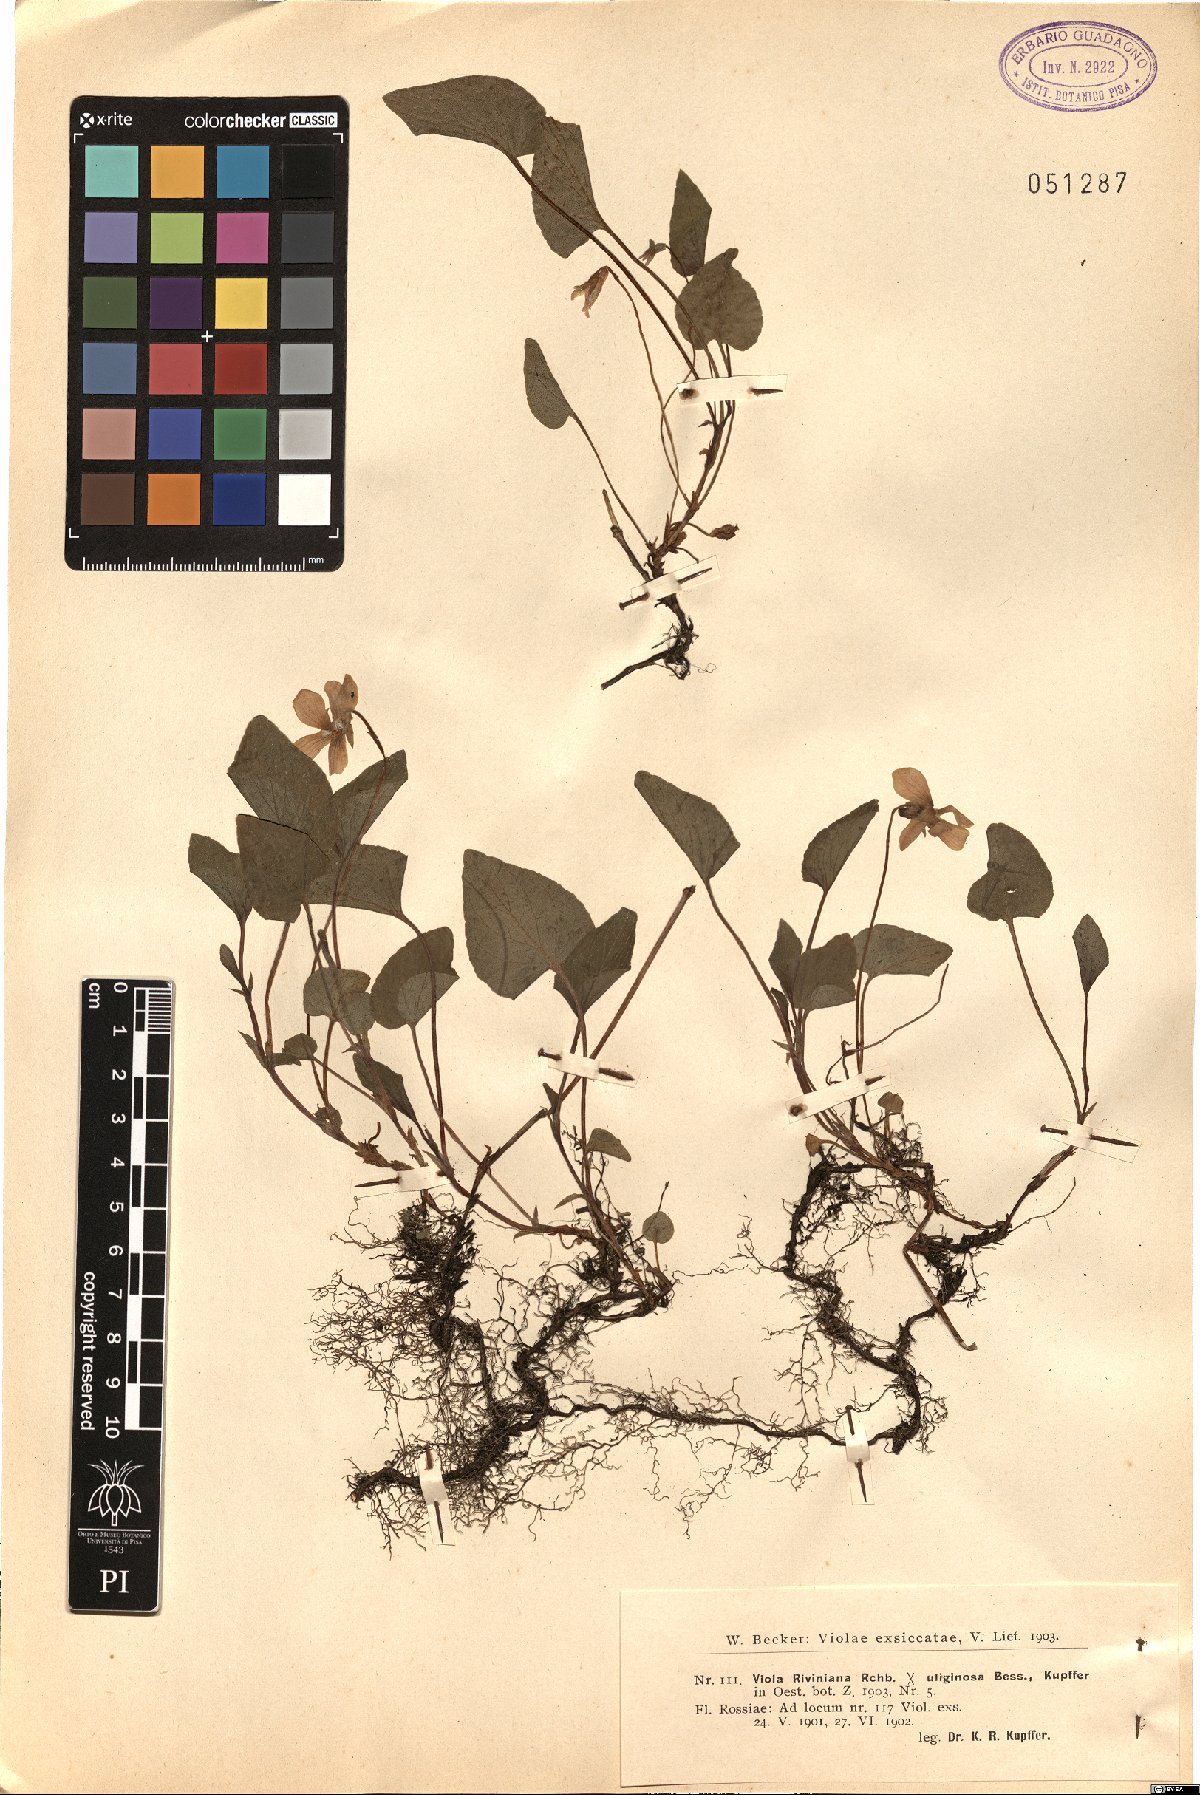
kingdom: Plantae
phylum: Tracheophyta
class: Magnoliopsida
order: Malpighiales
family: Violaceae
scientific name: Violaceae
